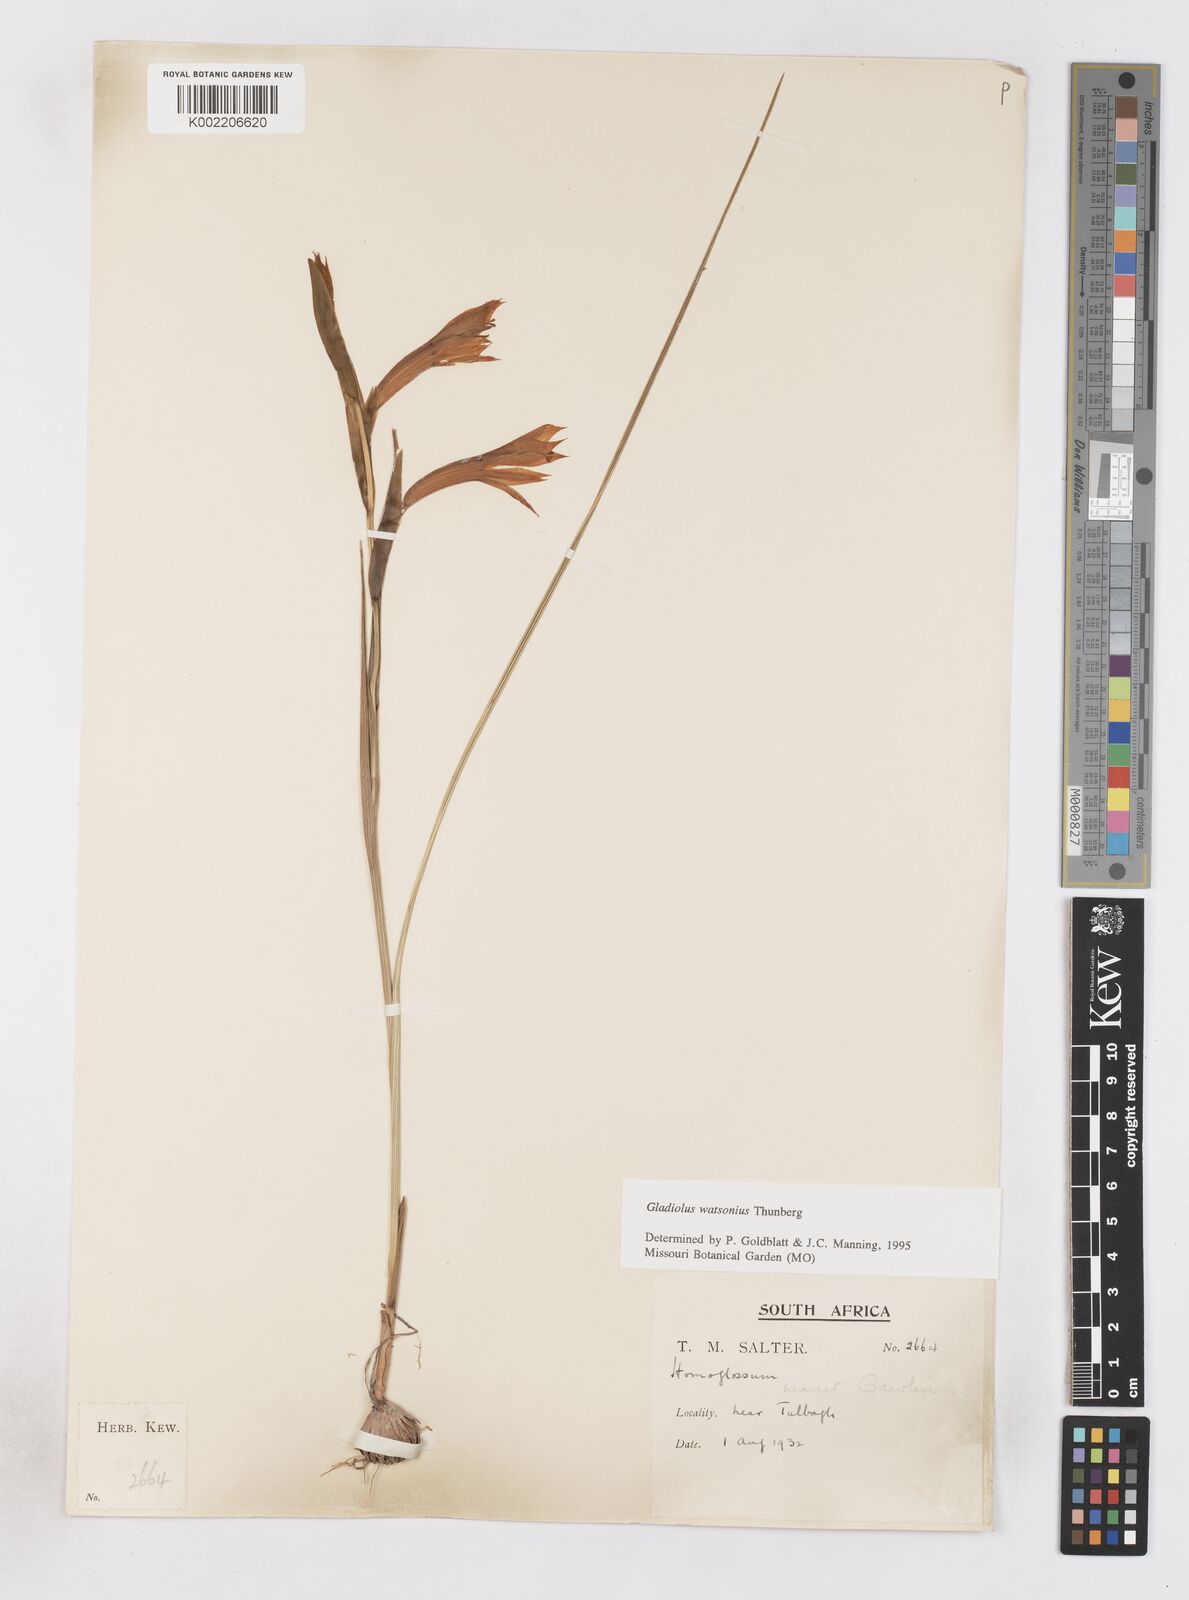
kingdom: Plantae
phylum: Tracheophyta
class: Liliopsida
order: Asparagales
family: Iridaceae
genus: Gladiolus
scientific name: Gladiolus watsonius
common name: Red afrikaner
